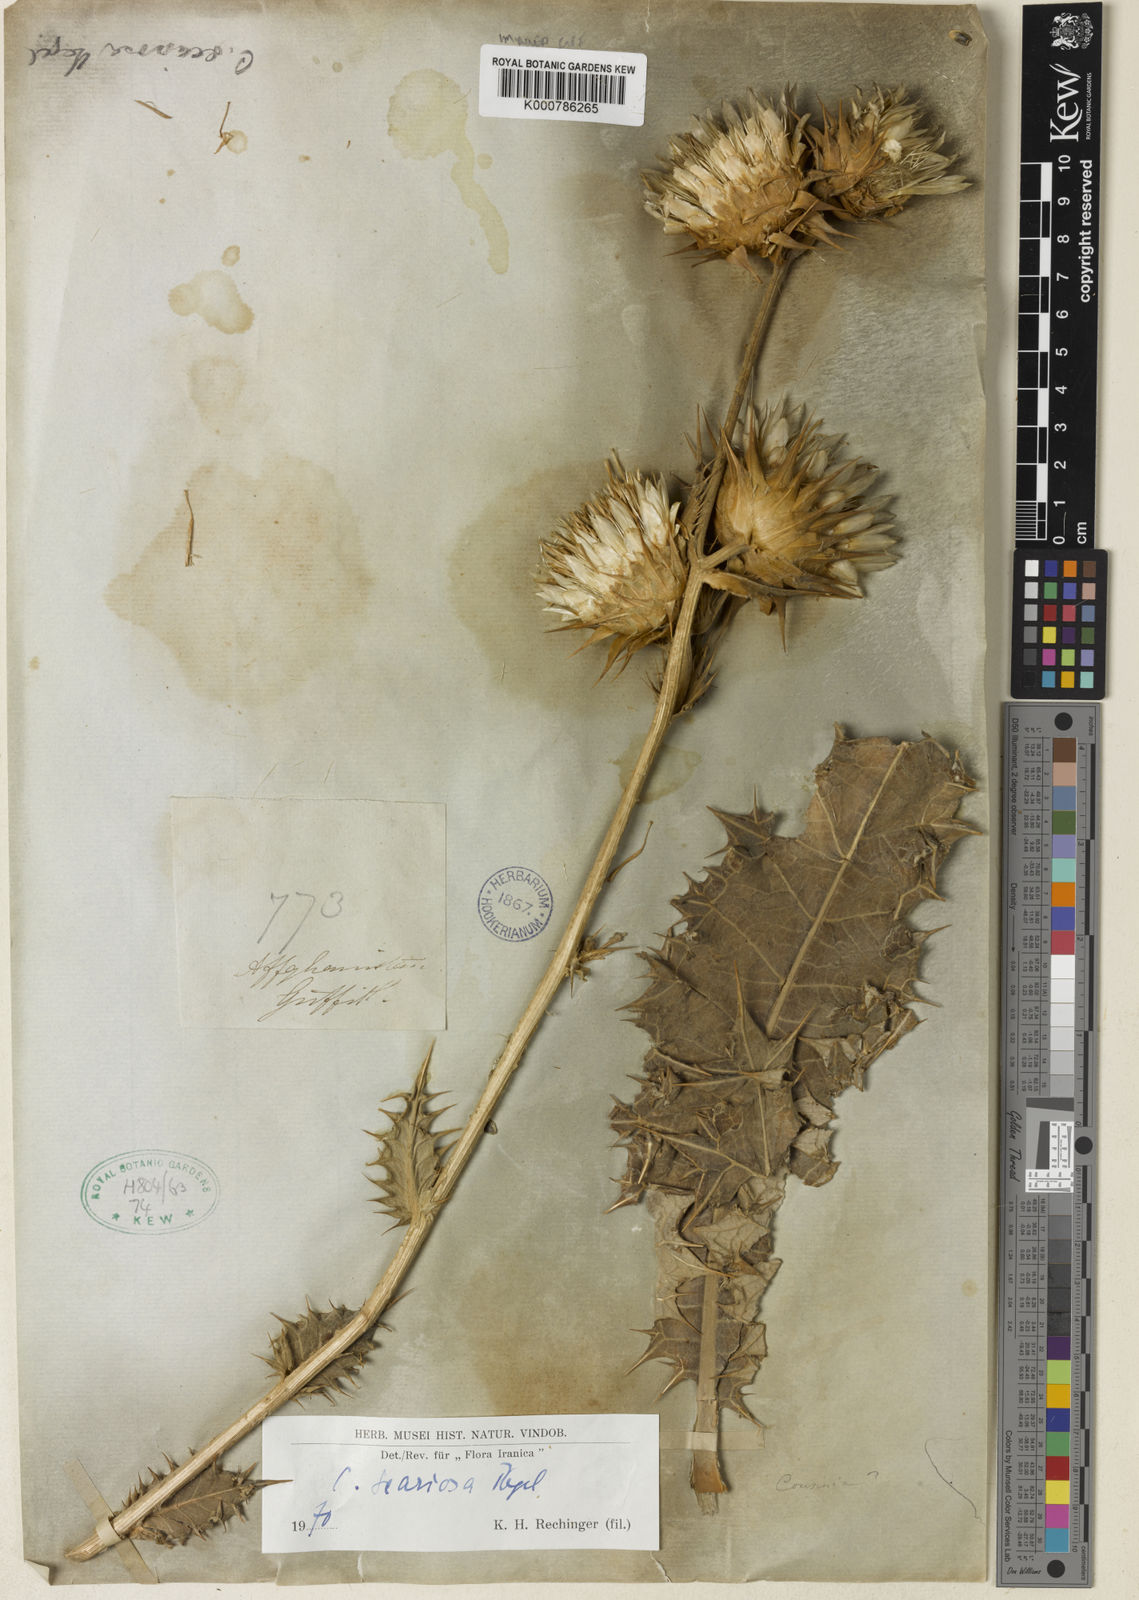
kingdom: Plantae
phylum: Tracheophyta
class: Magnoliopsida
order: Asterales
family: Asteraceae
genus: Cousinia
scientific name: Cousinia scariosa
